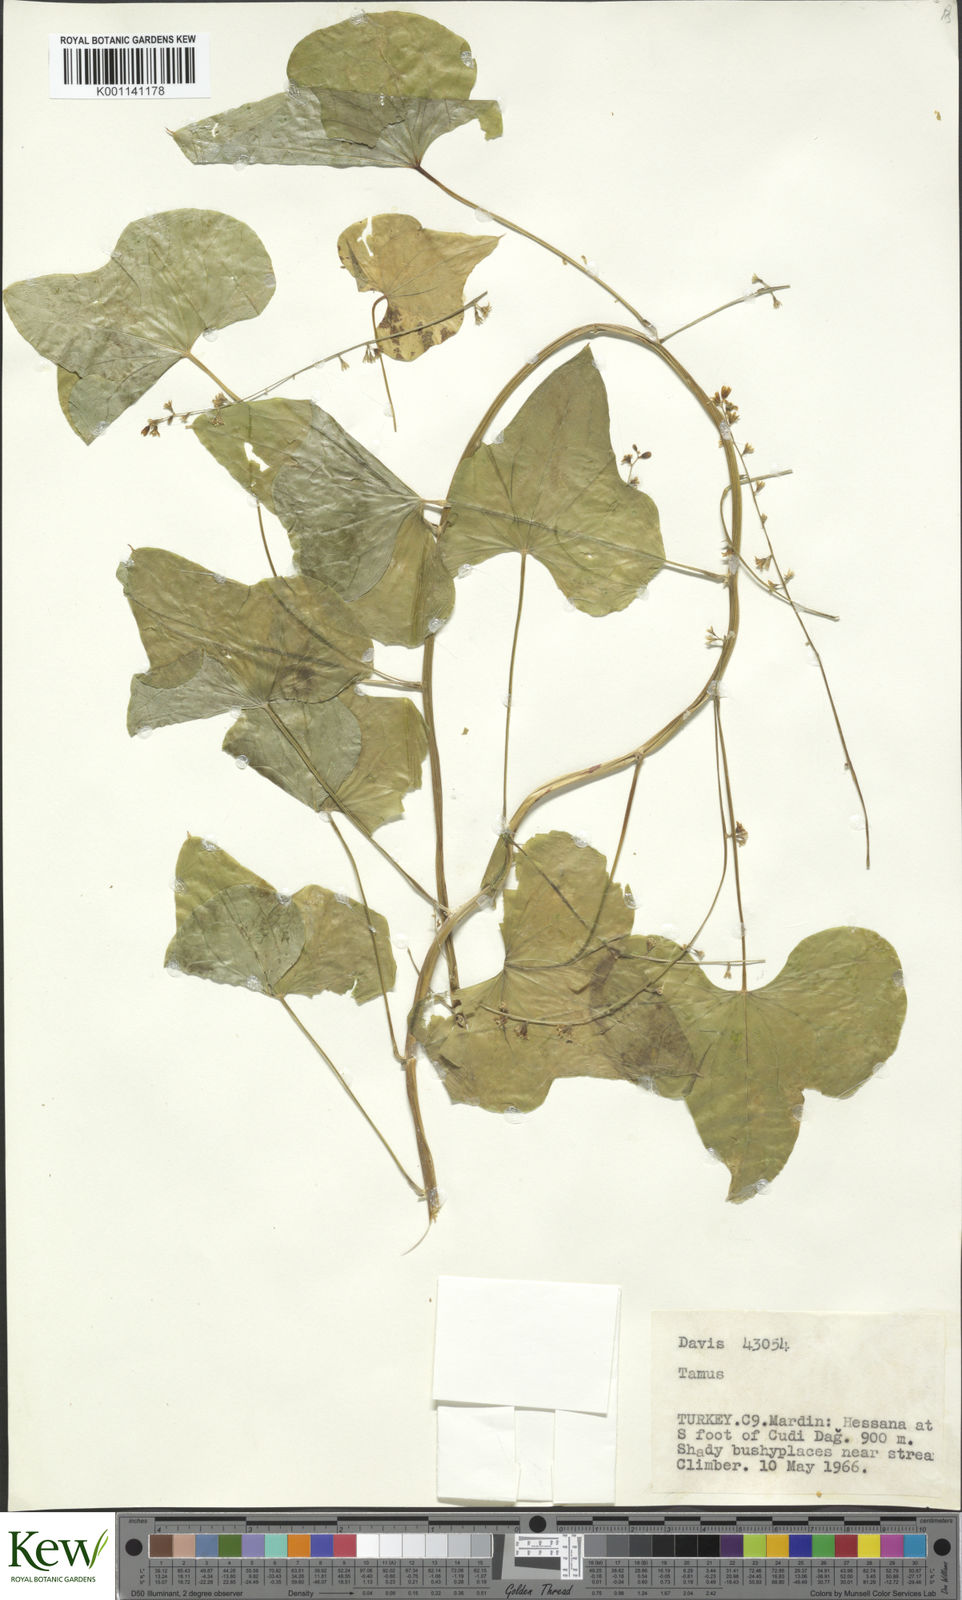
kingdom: Plantae
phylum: Tracheophyta
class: Liliopsida
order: Dioscoreales
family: Dioscoreaceae
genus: Dioscorea
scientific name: Dioscorea communis
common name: Black-bindweed
